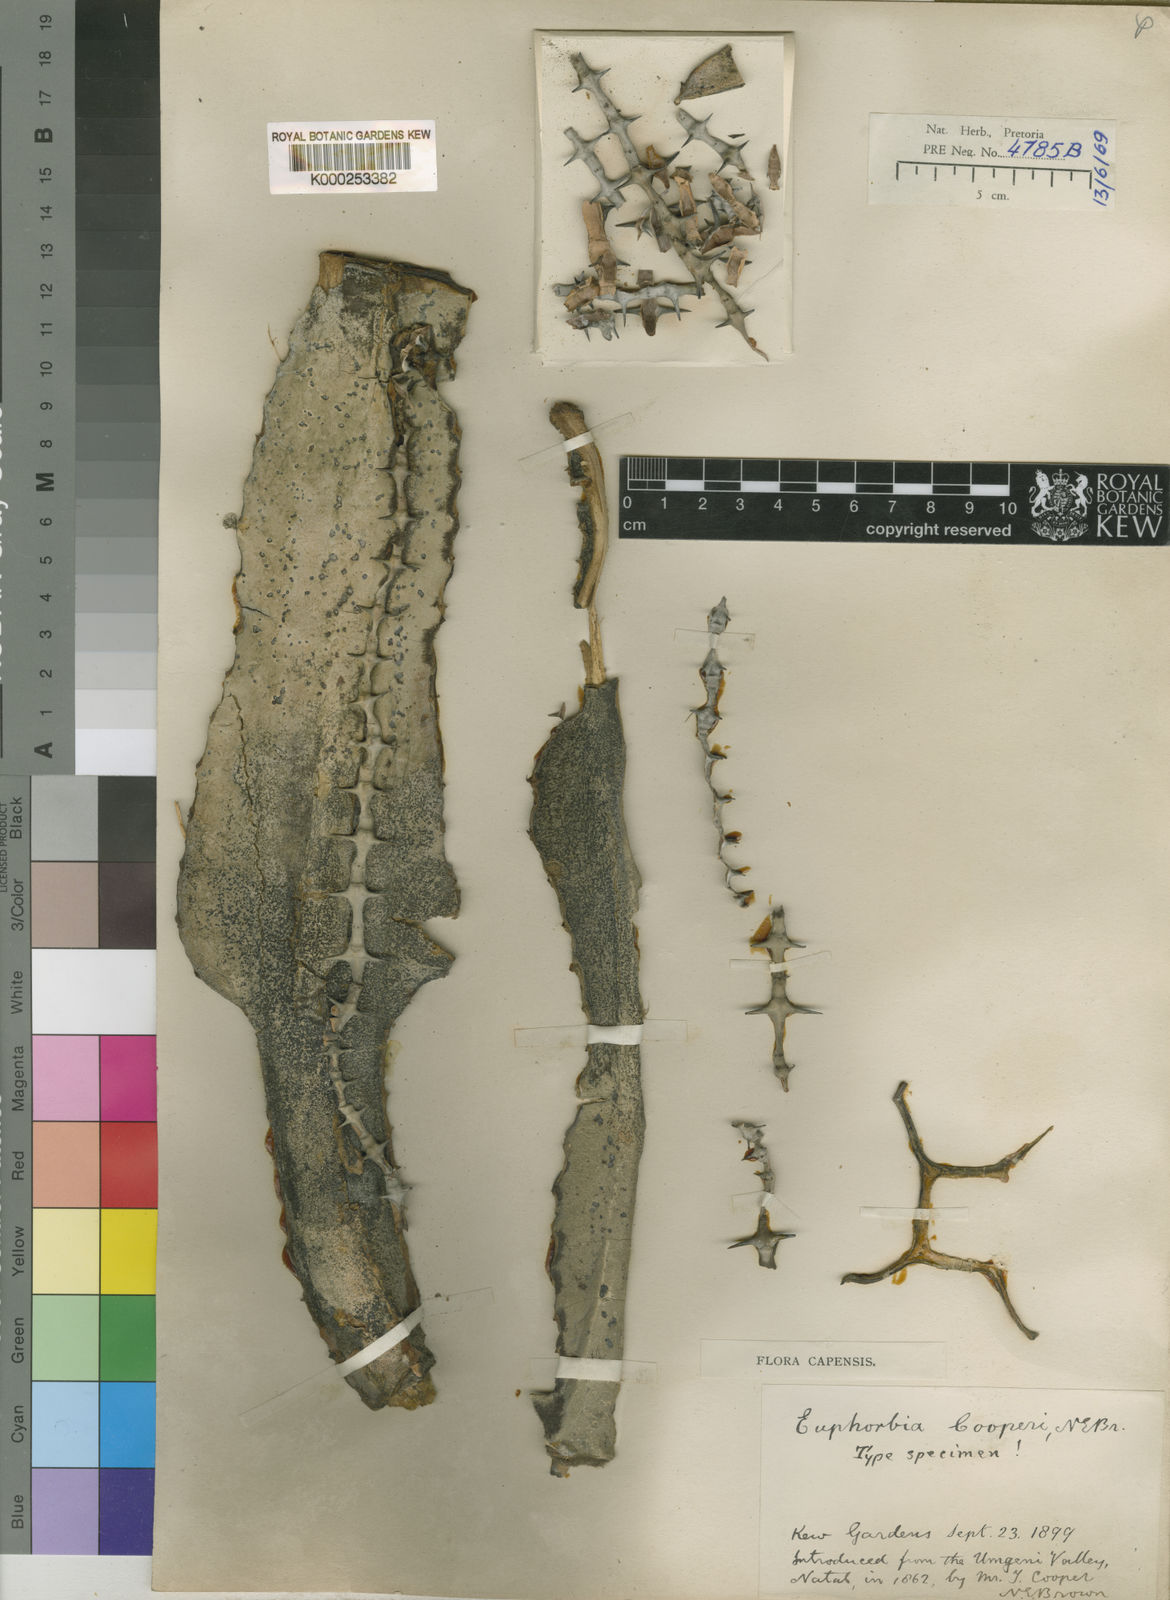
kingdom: Plantae
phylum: Tracheophyta
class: Magnoliopsida
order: Malpighiales
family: Euphorbiaceae
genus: Euphorbia
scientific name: Euphorbia cooperi
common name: Candelabra tree
